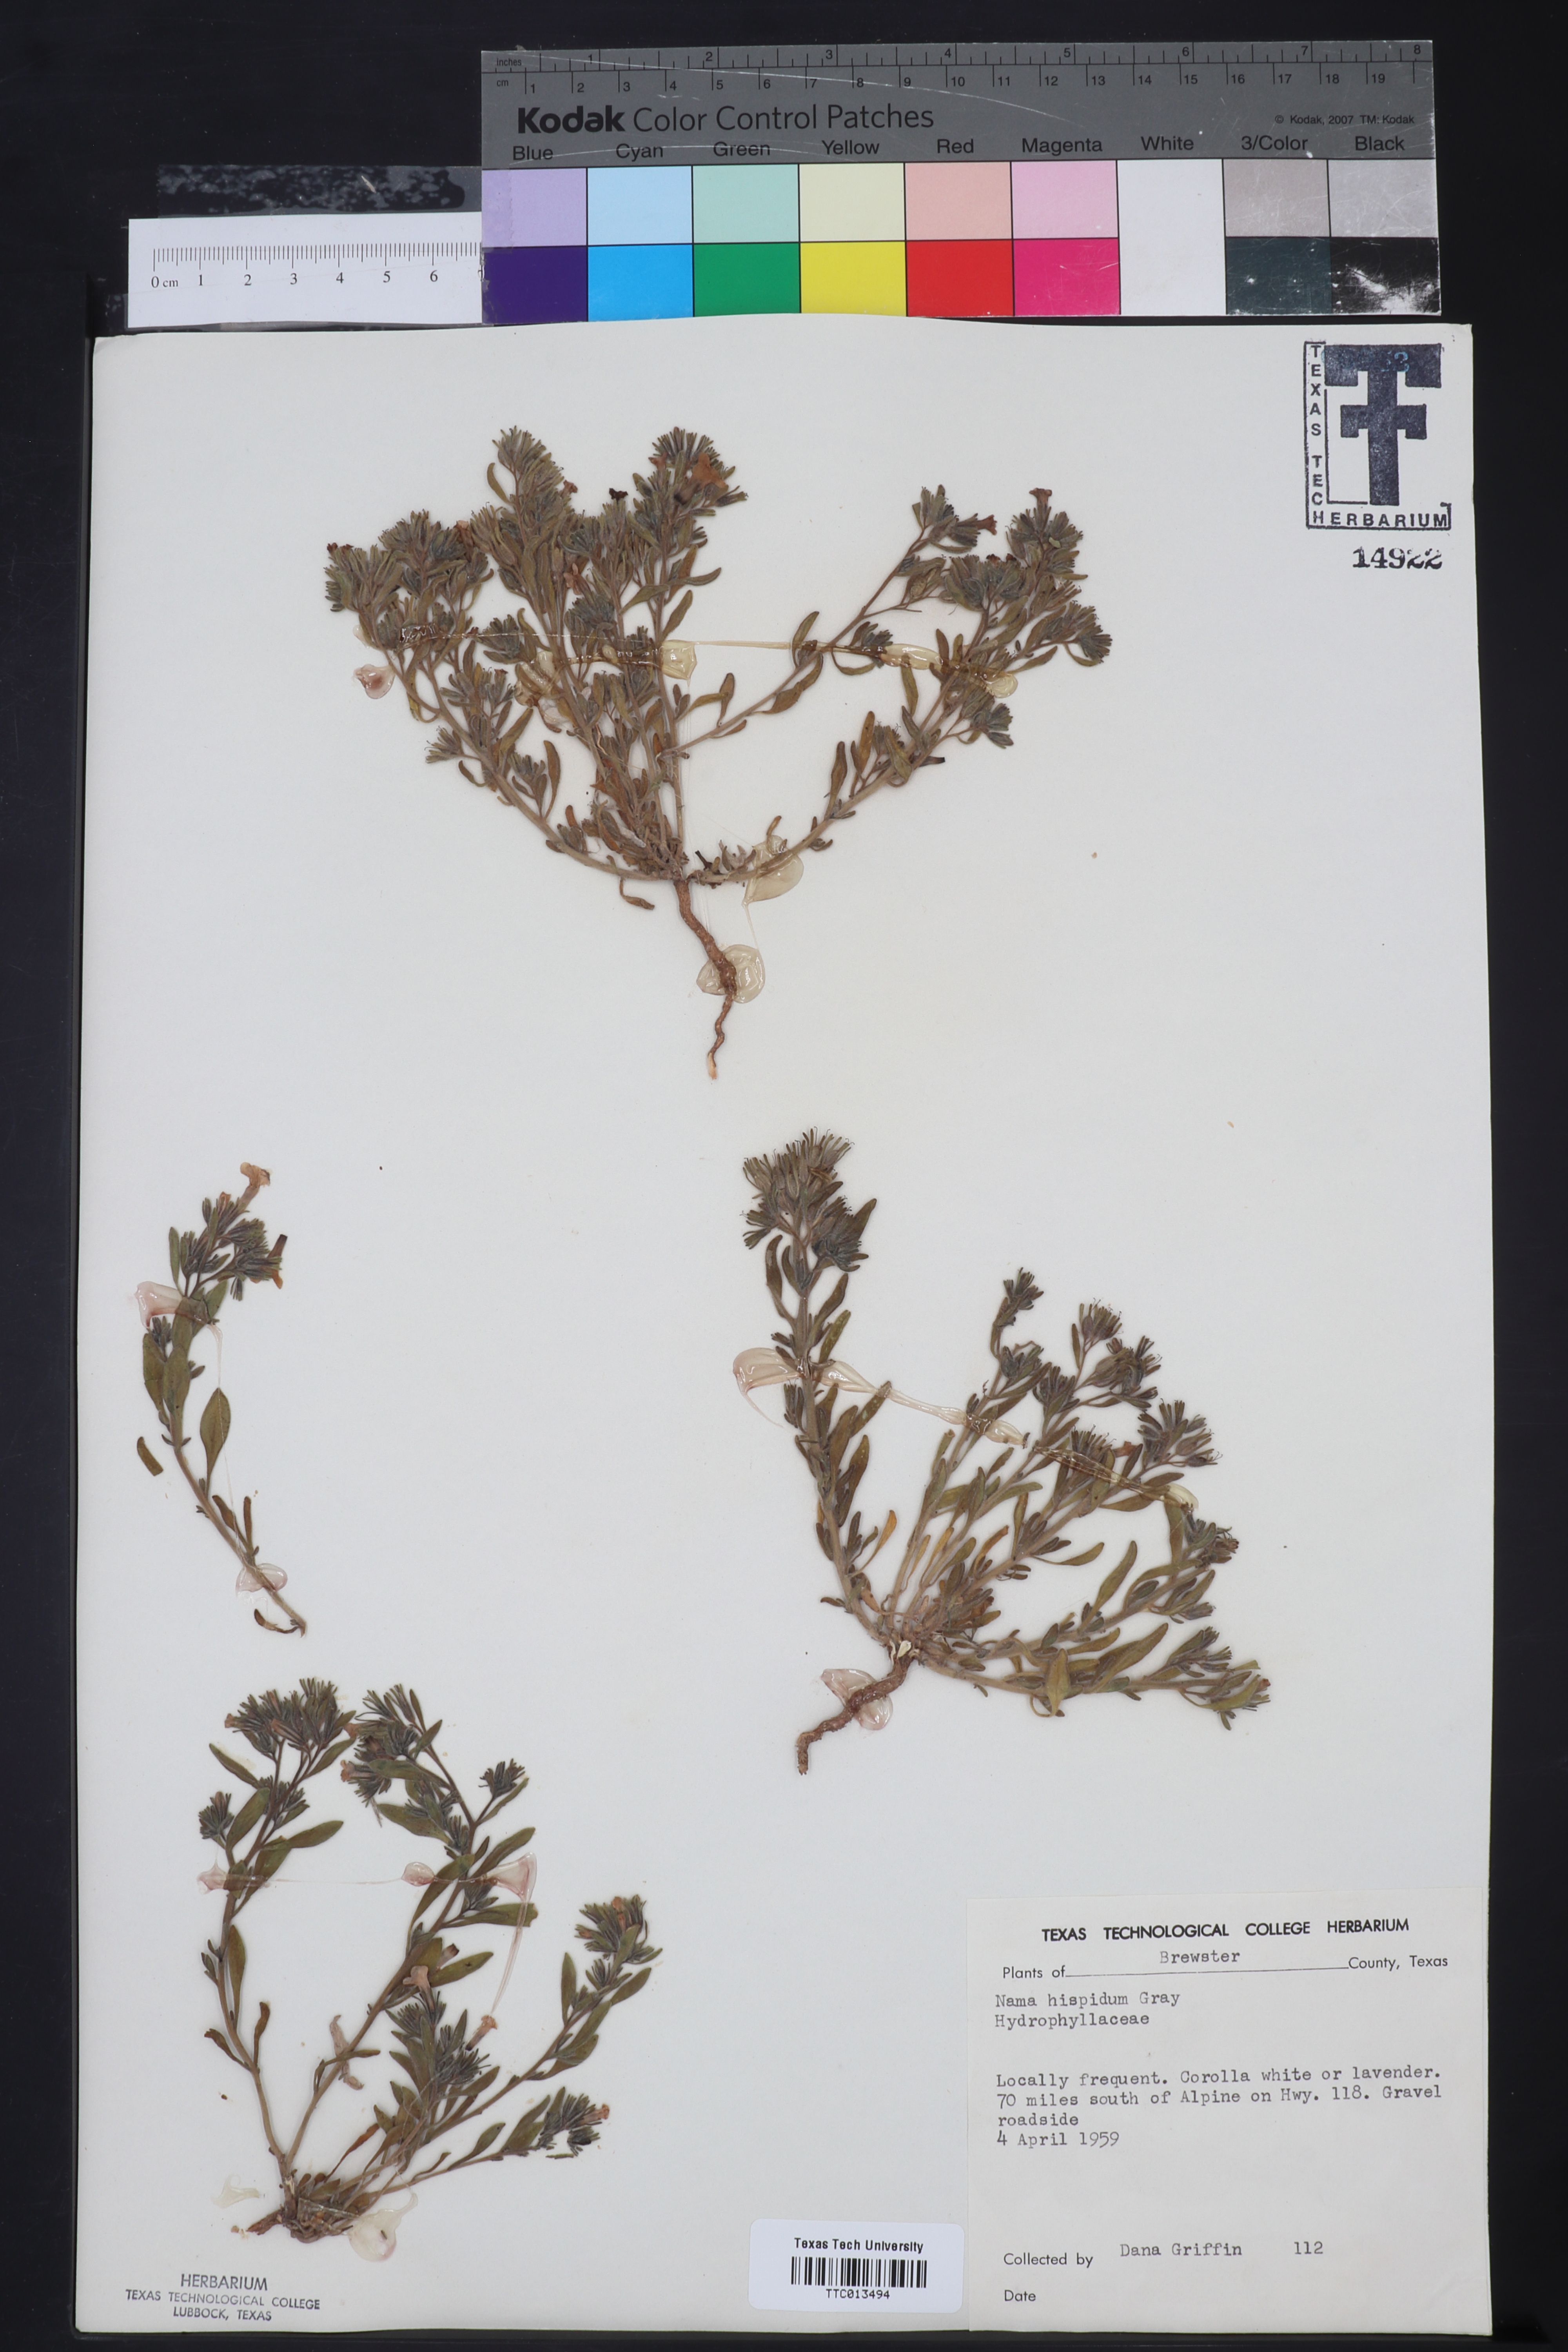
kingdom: Plantae
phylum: Tracheophyta
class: Magnoliopsida
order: Boraginales
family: Namaceae
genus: Nama
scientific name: Nama hispida
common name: Bristly nama
